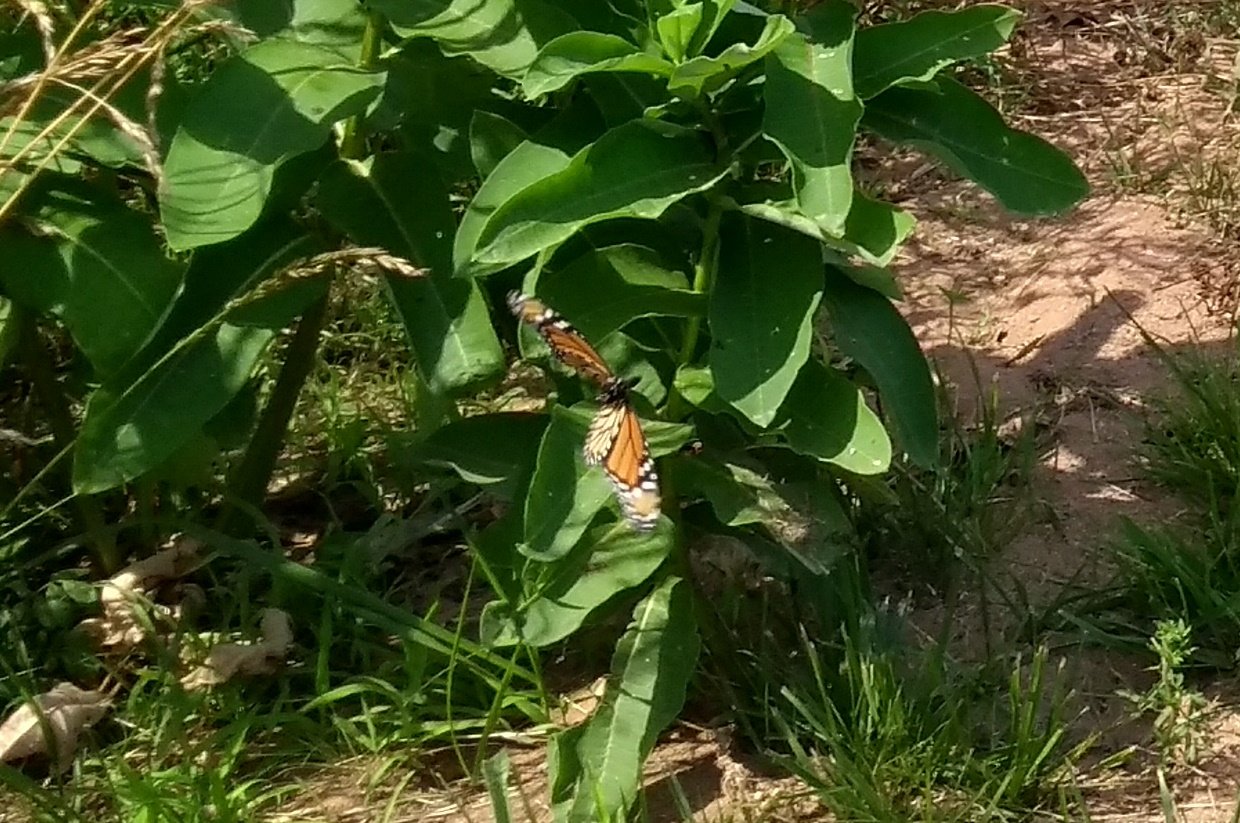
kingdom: Animalia
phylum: Arthropoda
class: Insecta
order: Lepidoptera
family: Nymphalidae
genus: Danaus
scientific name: Danaus plexippus
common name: Monarch
